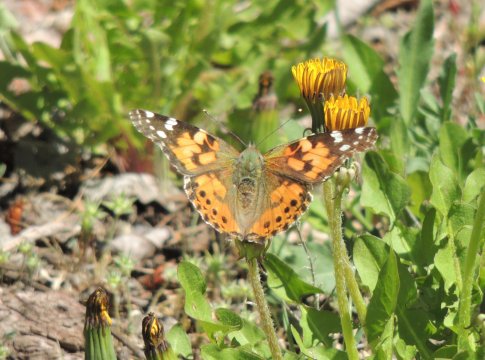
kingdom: Animalia
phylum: Arthropoda
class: Insecta
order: Lepidoptera
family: Nymphalidae
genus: Vanessa
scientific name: Vanessa cardui
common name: Painted Lady
